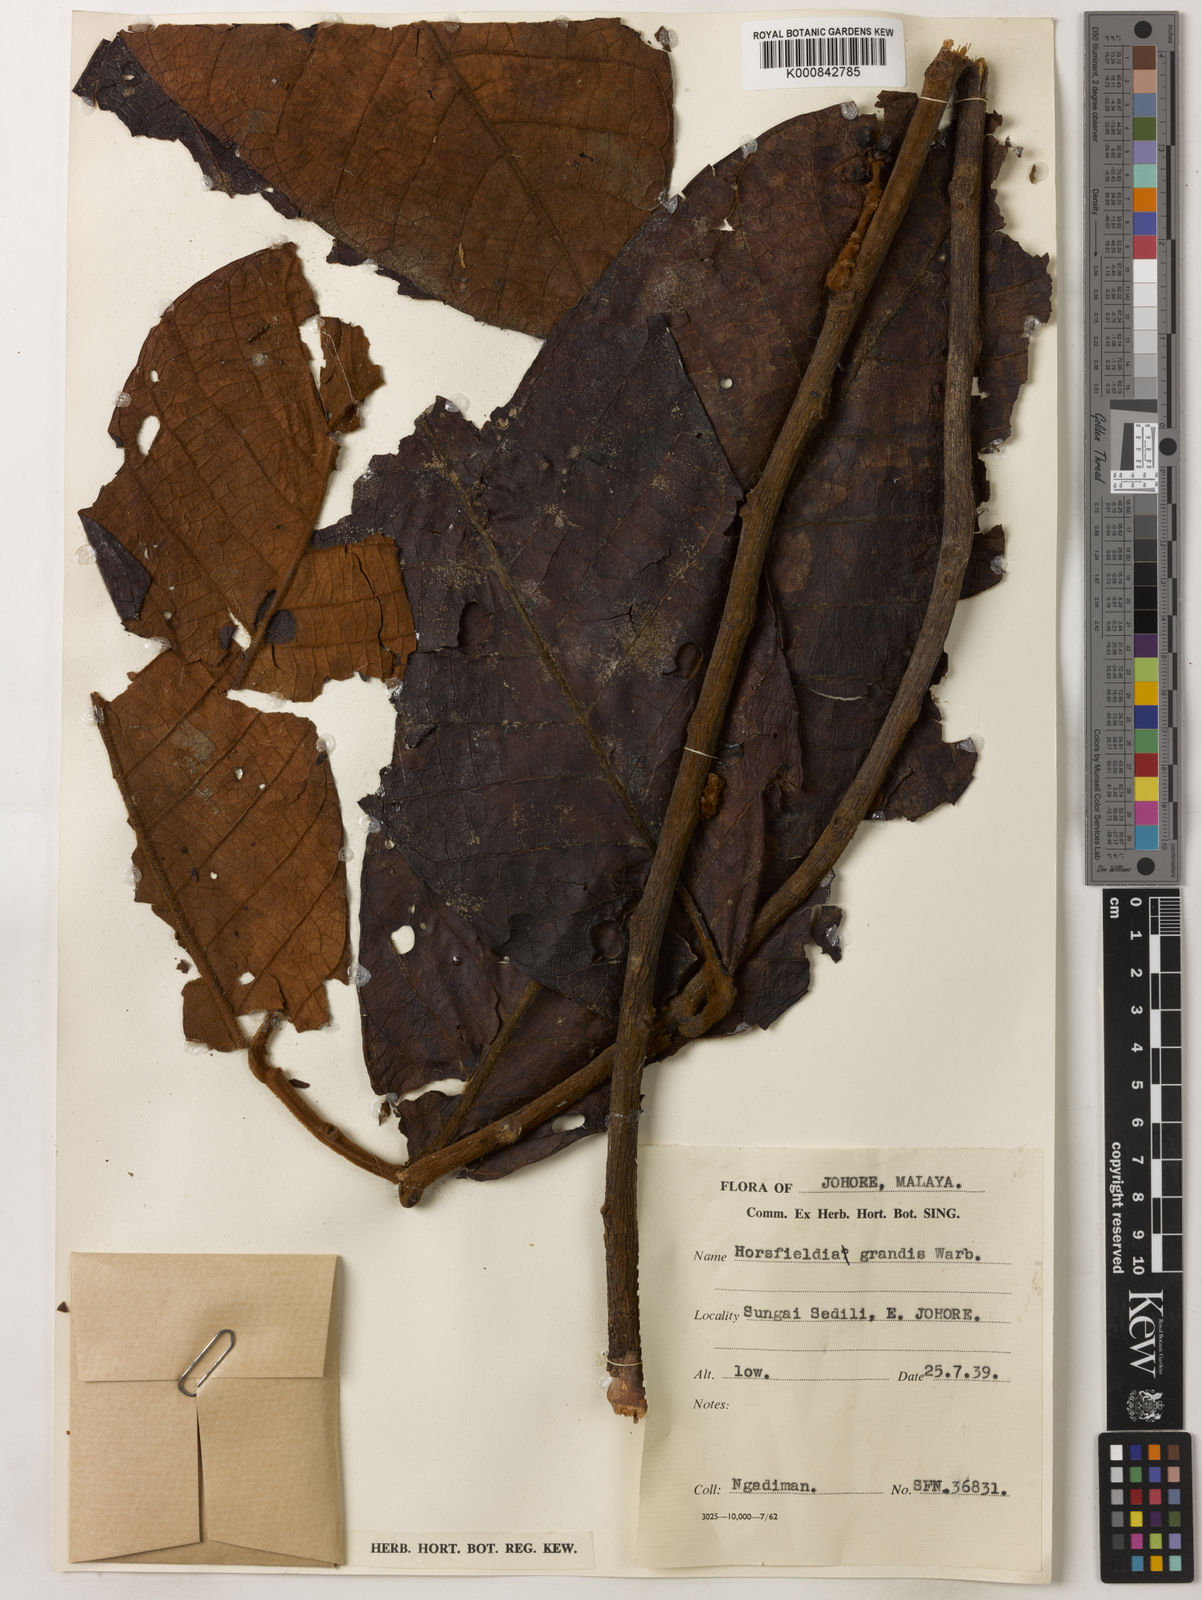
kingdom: Plantae
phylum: Tracheophyta
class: Magnoliopsida
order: Magnoliales
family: Myristicaceae
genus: Horsfieldia
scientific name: Horsfieldia grandis
